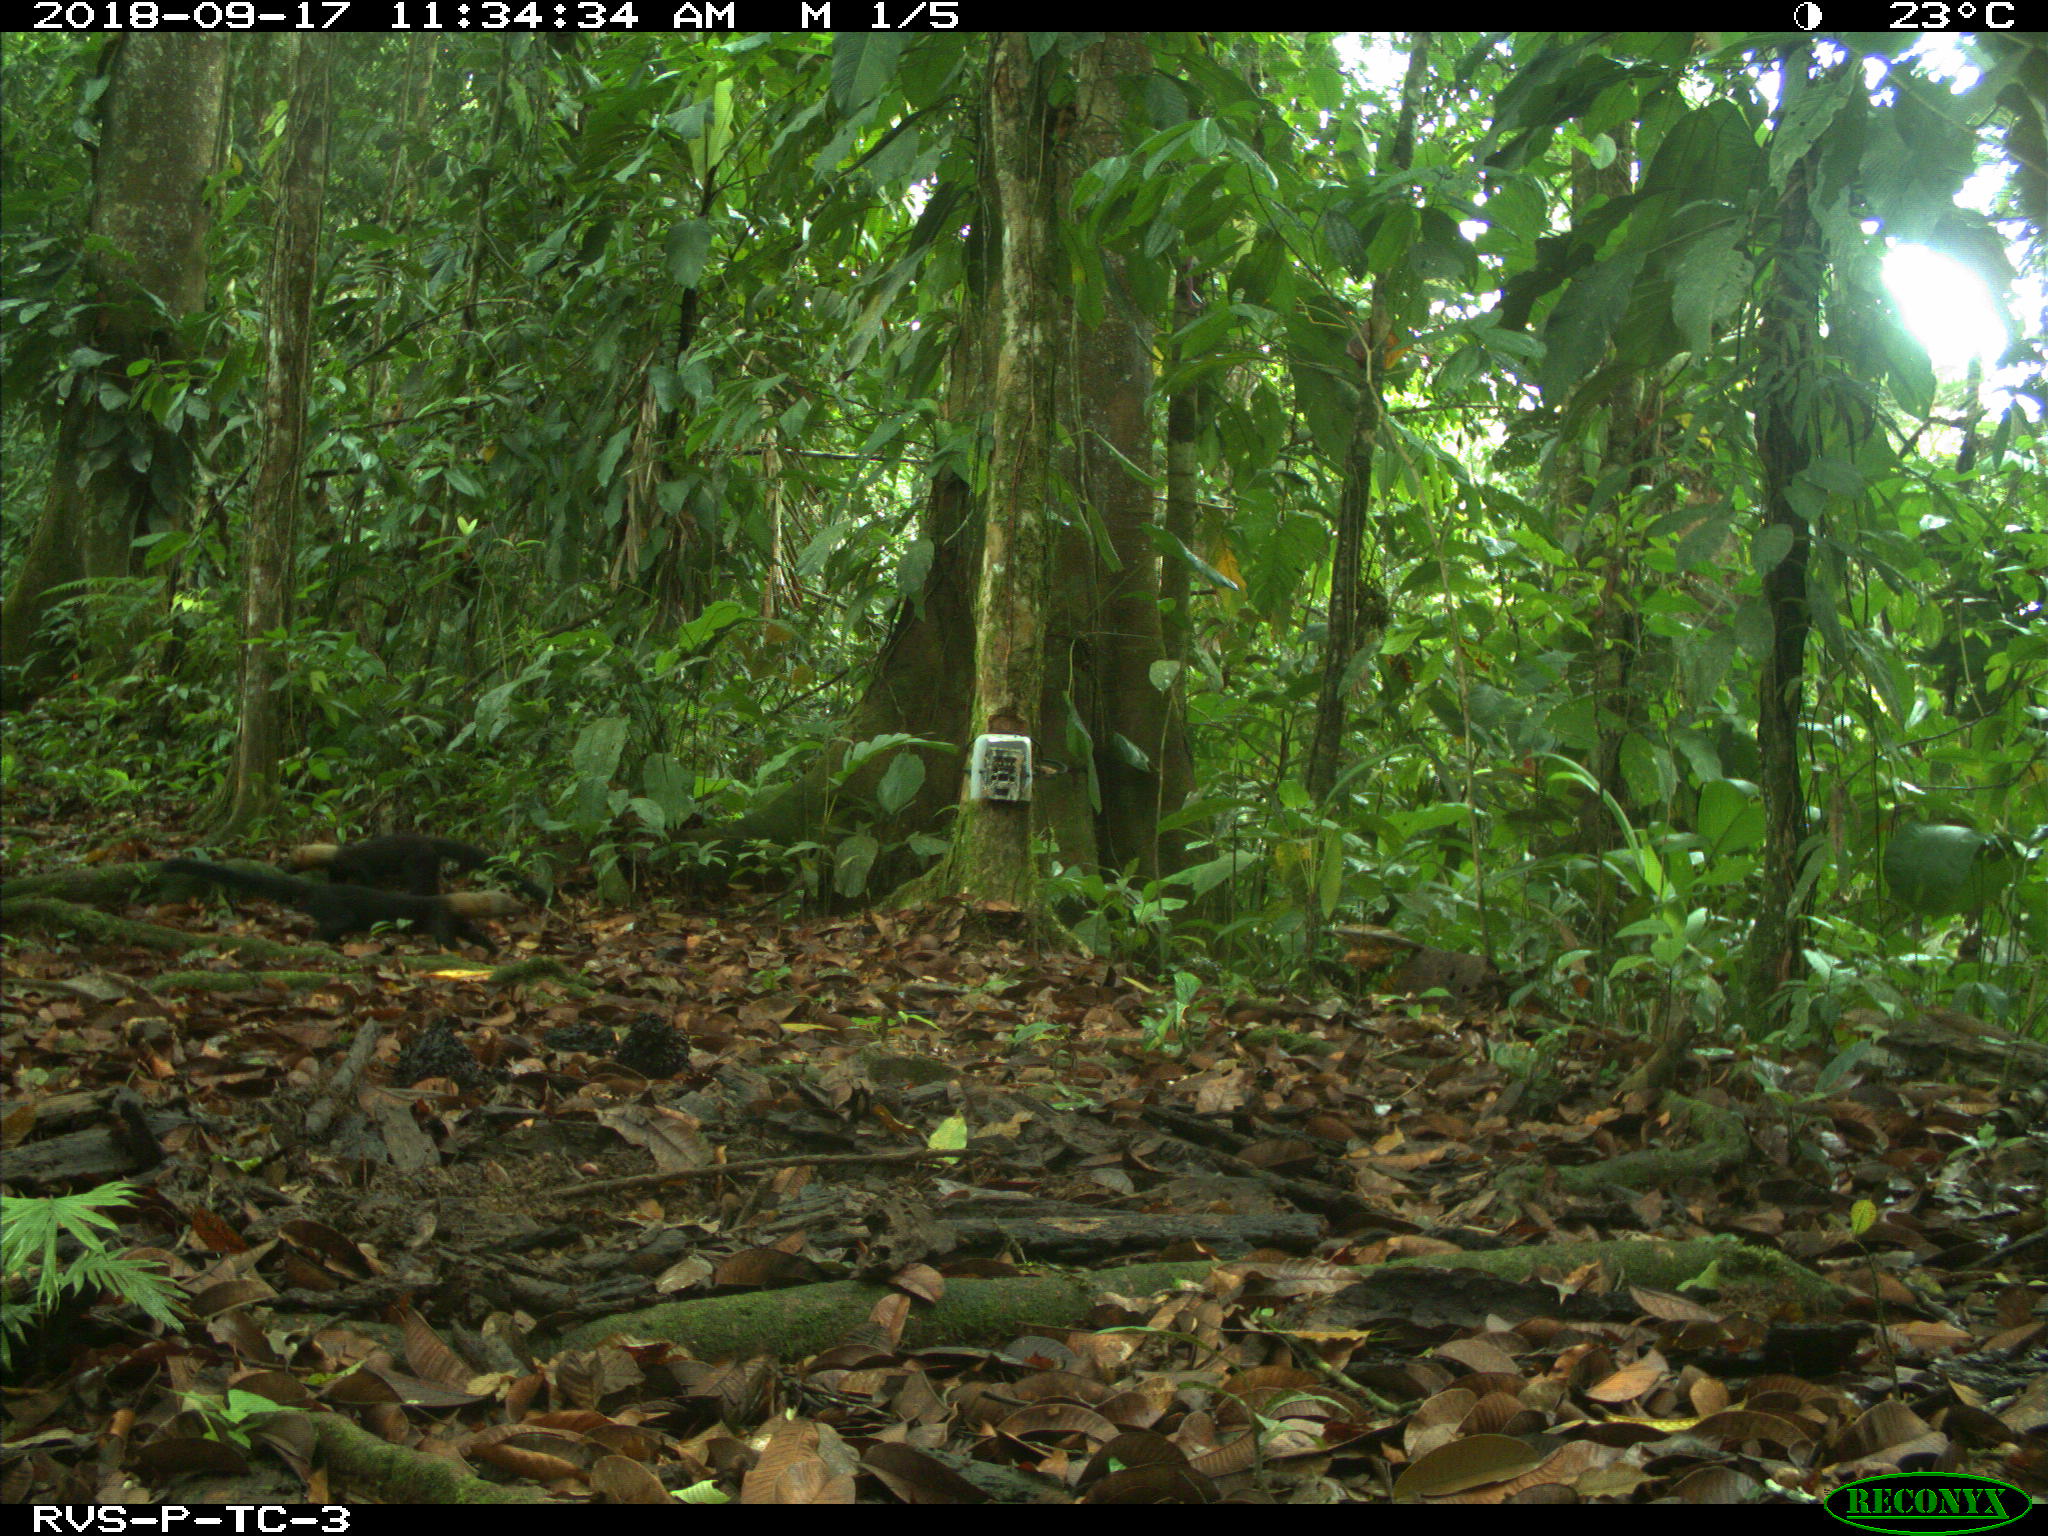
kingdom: Animalia
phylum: Chordata
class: Mammalia
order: Carnivora
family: Mustelidae
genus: Eira
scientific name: Eira barbara
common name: Tayra
